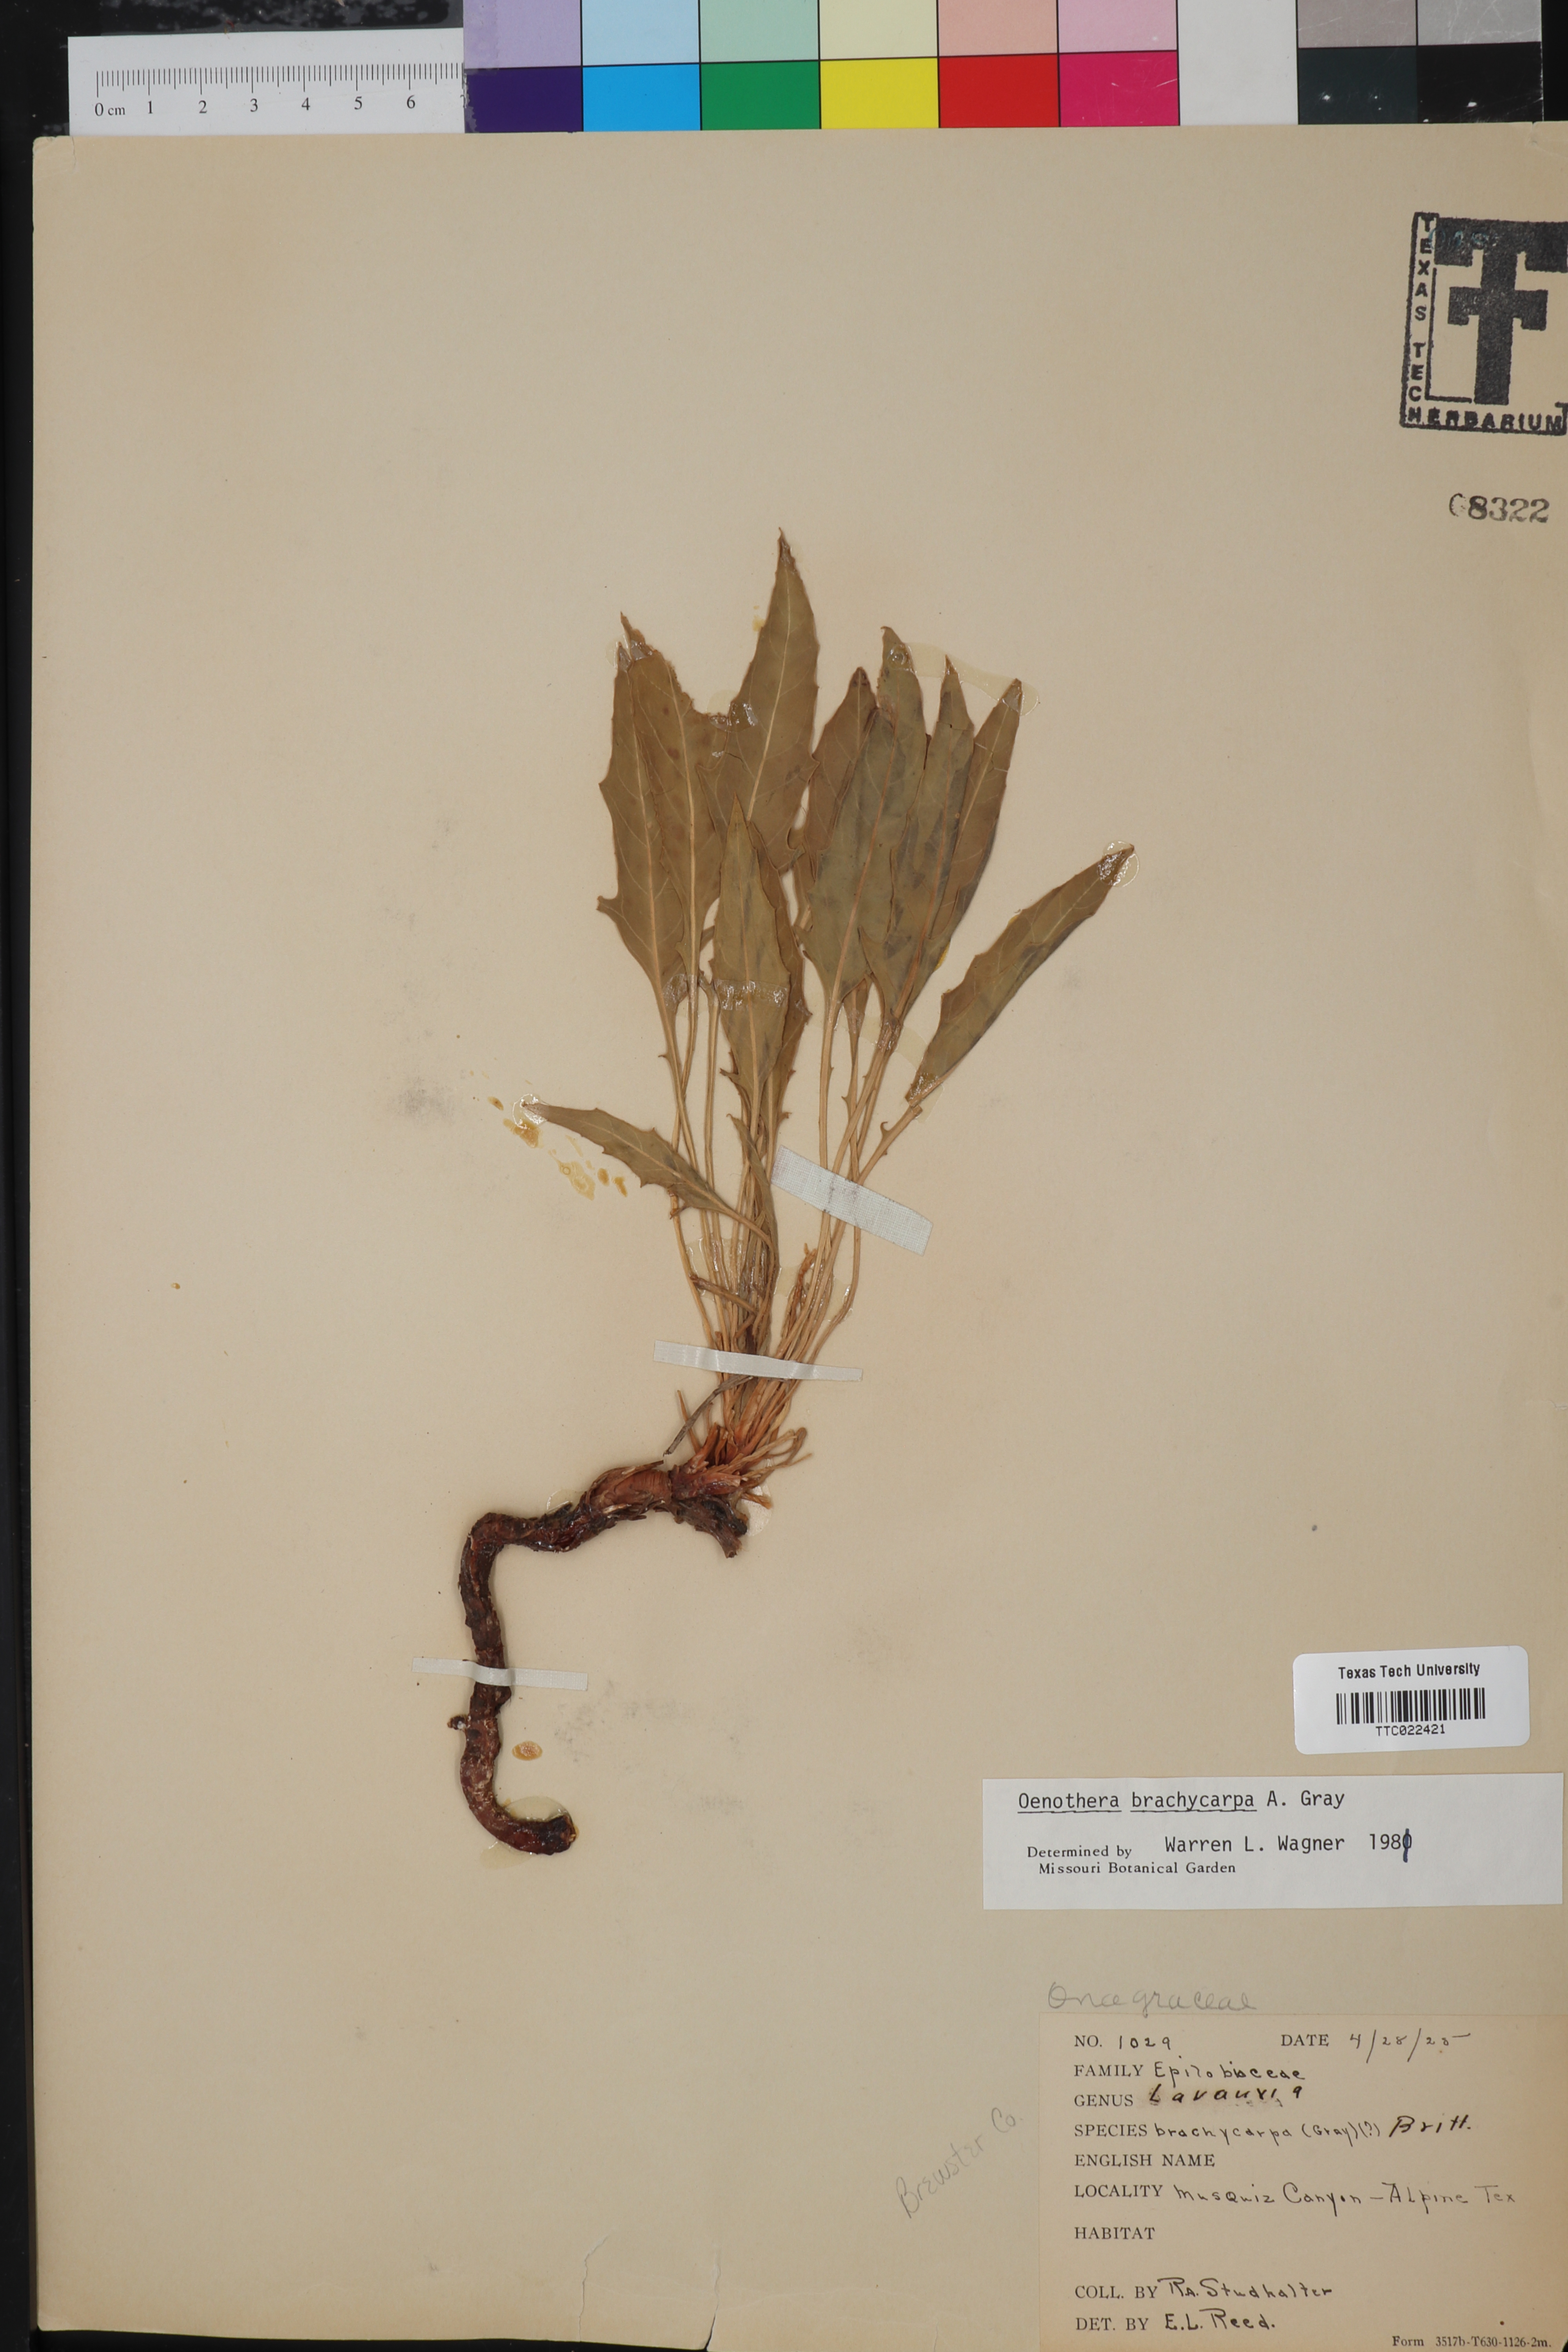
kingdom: Plantae
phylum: Tracheophyta
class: Magnoliopsida
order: Myrtales
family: Onagraceae
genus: Oenothera
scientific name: Oenothera brachycarpa
